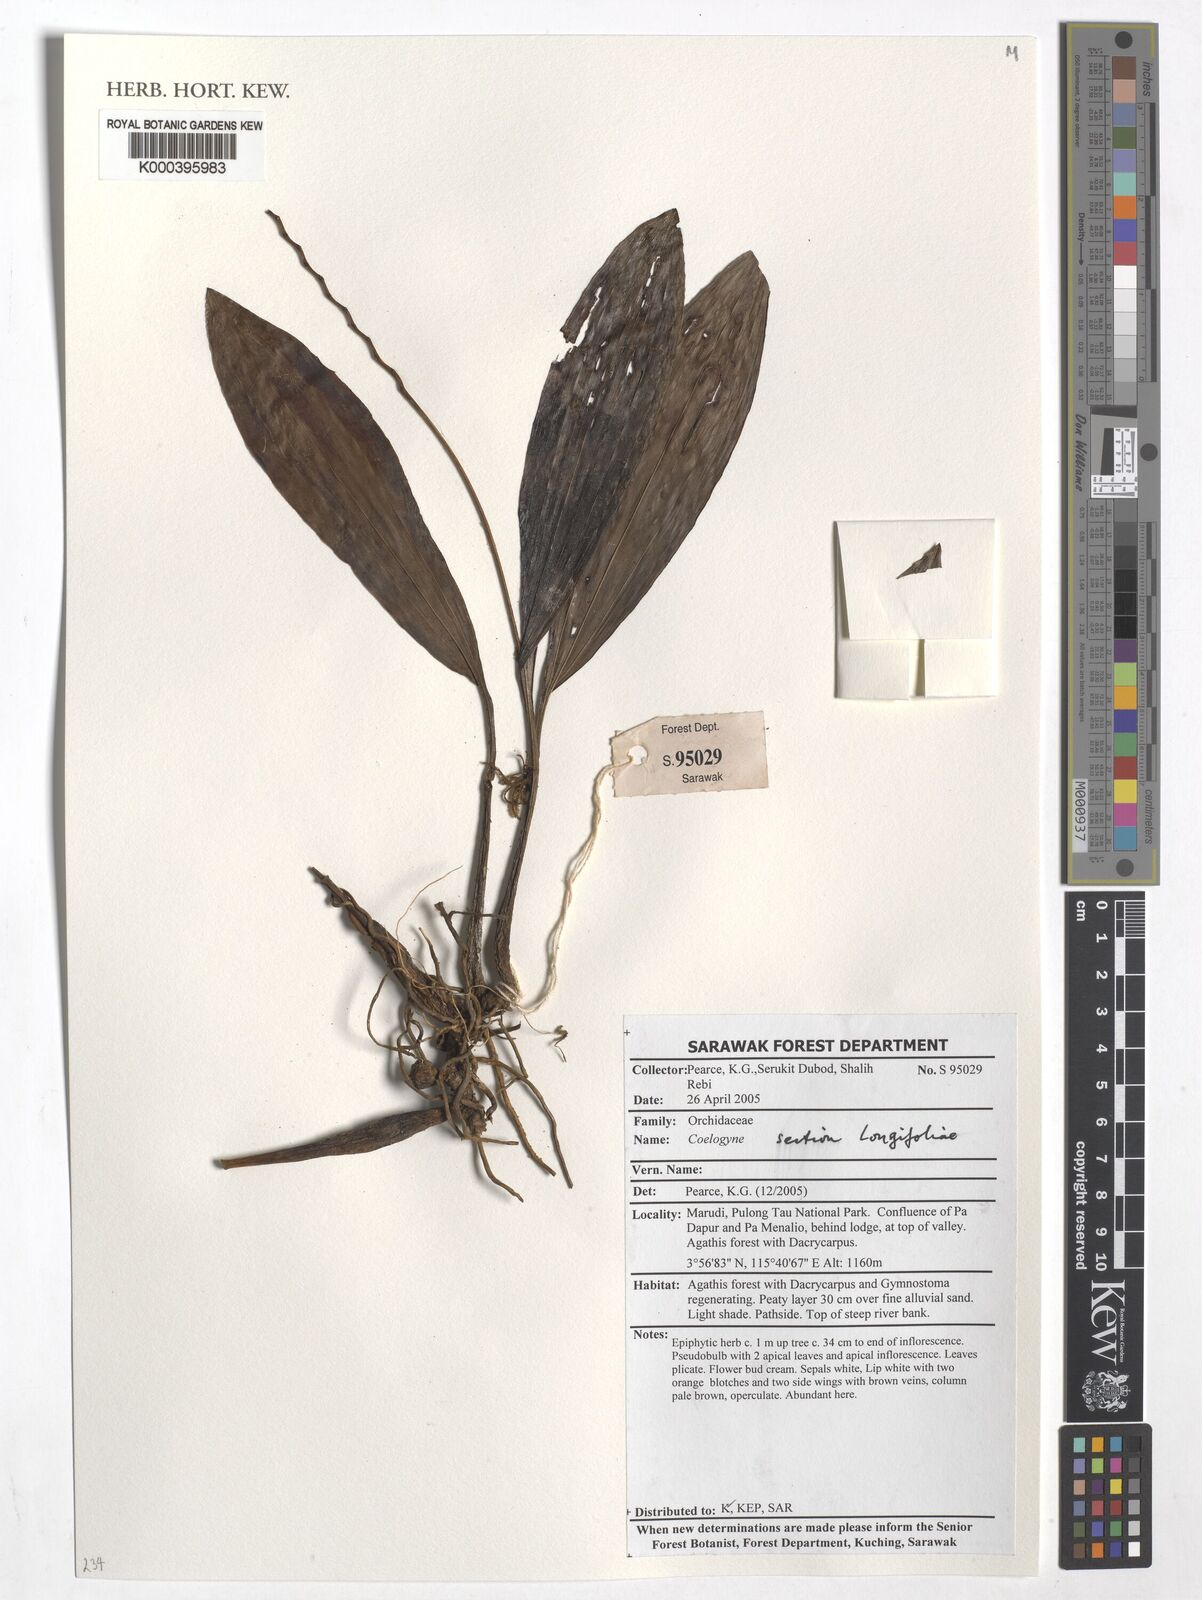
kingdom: Plantae
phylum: Tracheophyta
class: Liliopsida
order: Asparagales
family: Orchidaceae
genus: Coelogyne
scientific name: Coelogyne
